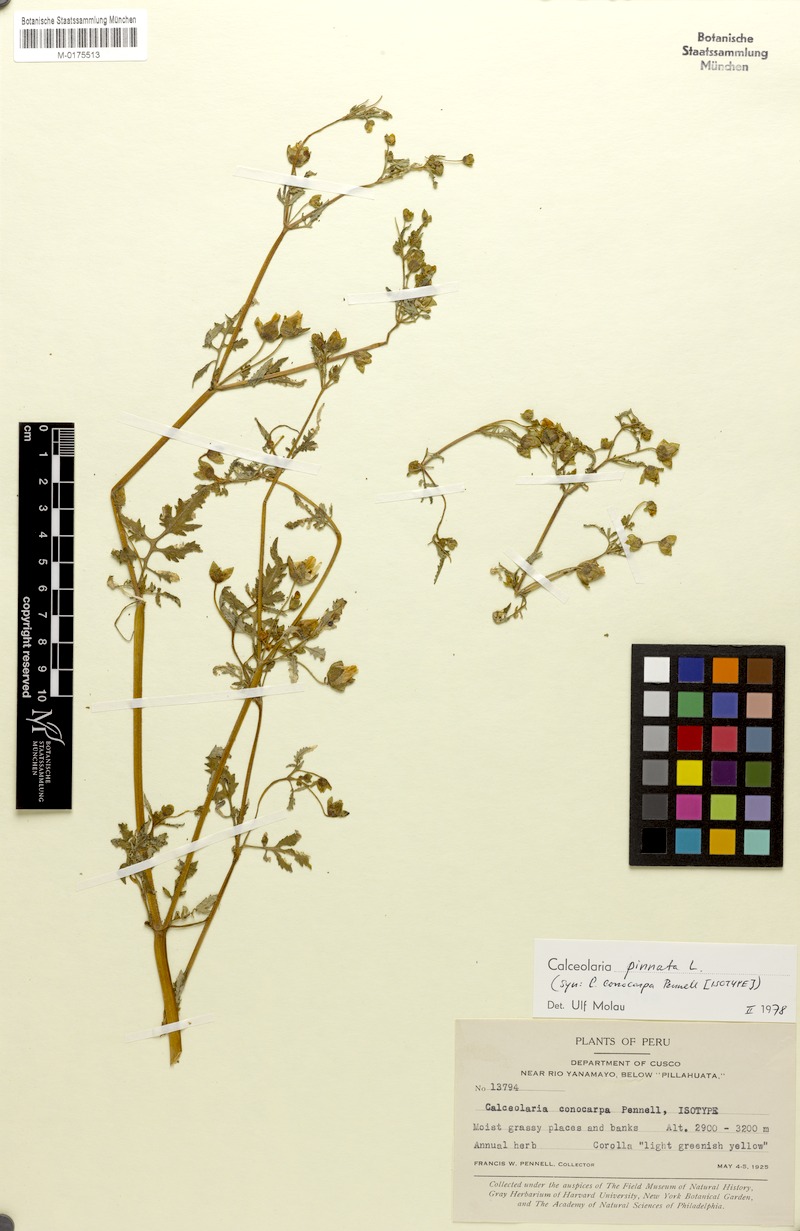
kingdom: Plantae
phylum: Tracheophyta
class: Magnoliopsida
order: Lamiales
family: Calceolariaceae
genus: Calceolaria
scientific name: Calceolaria pinnata
